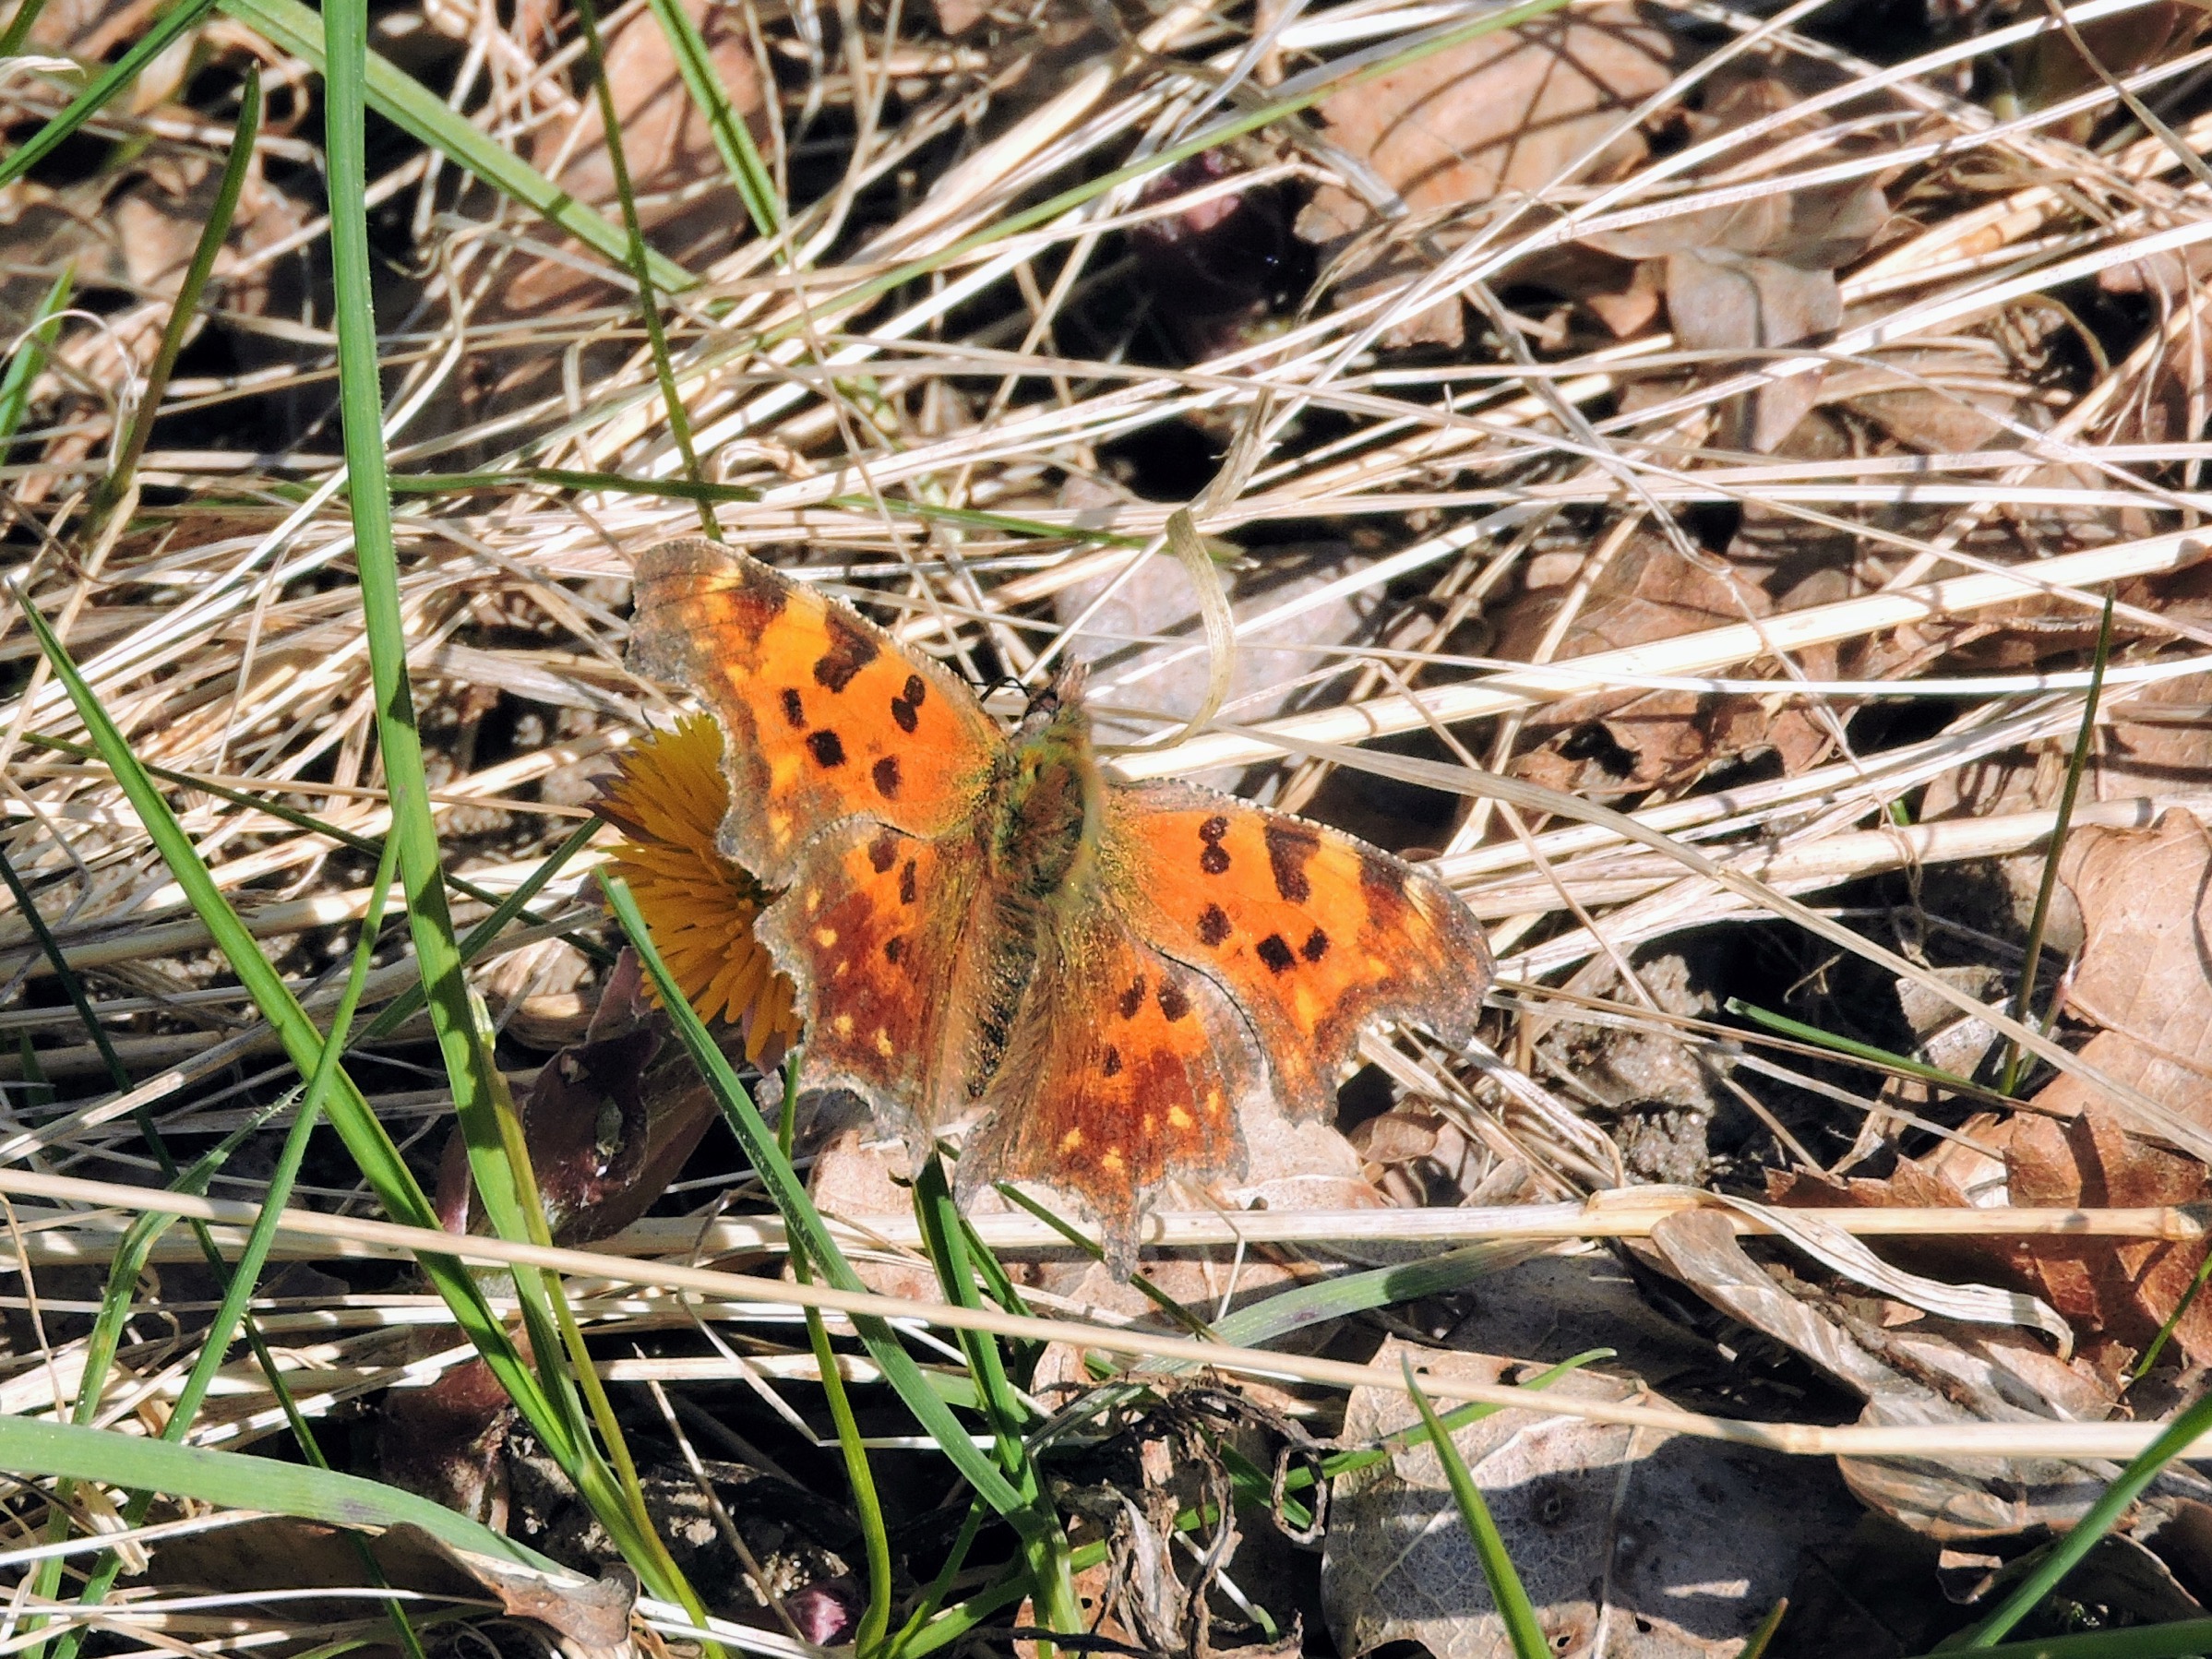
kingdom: Animalia
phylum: Arthropoda
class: Insecta
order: Lepidoptera
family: Nymphalidae
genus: Polygonia
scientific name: Polygonia c-album
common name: Det hvide C
